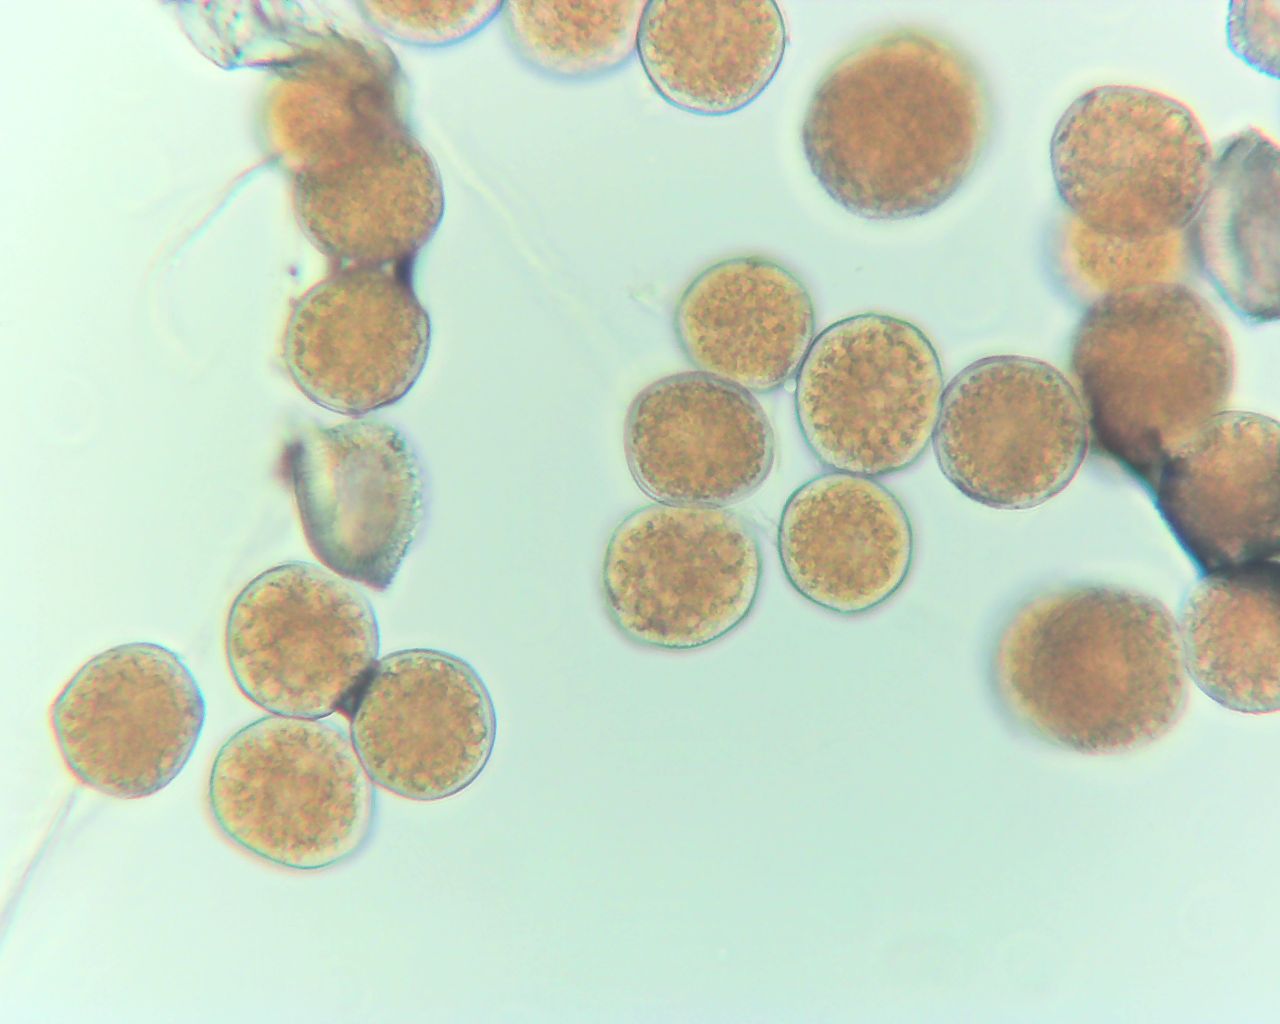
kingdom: Fungi
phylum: Basidiomycota
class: Pucciniomycetes
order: Pucciniales
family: Pucciniaceae
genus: Puccinia
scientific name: Puccinia festucae
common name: gedeblad-tvecellerust
